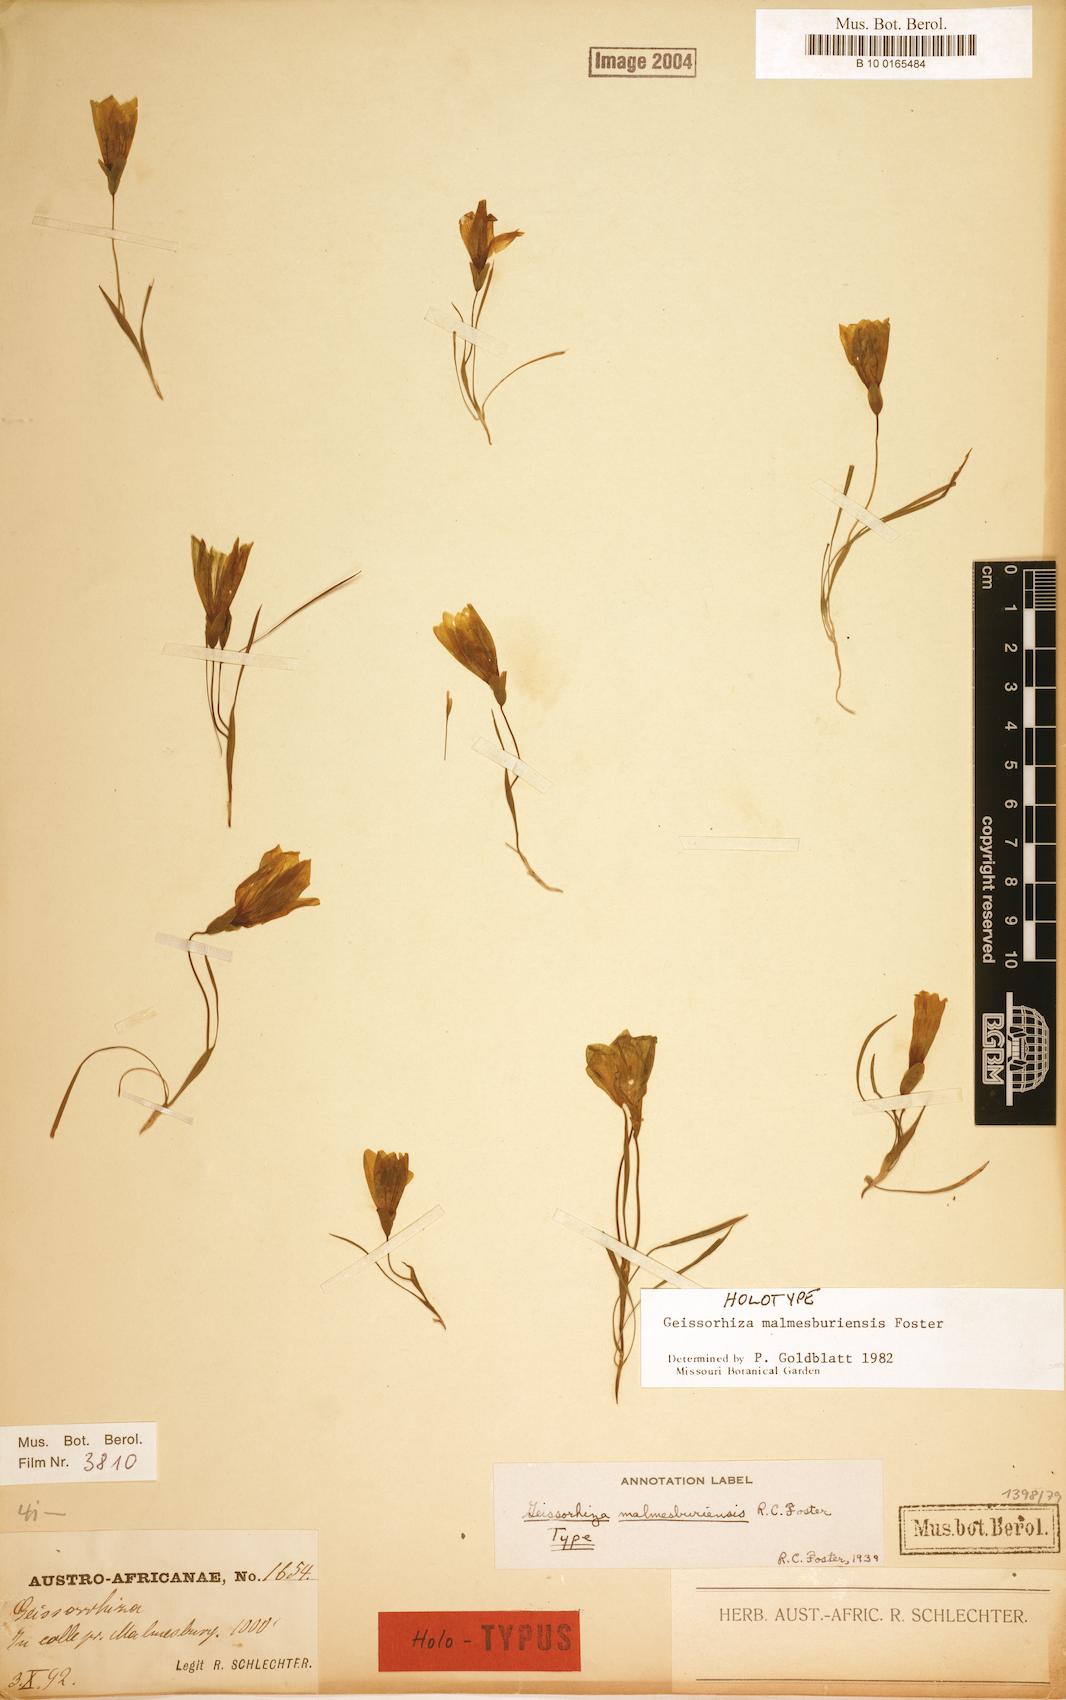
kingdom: Plantae
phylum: Tracheophyta
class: Liliopsida
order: Asparagales
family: Iridaceae
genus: Geissorhiza
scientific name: Geissorhiza malmesburiensis
